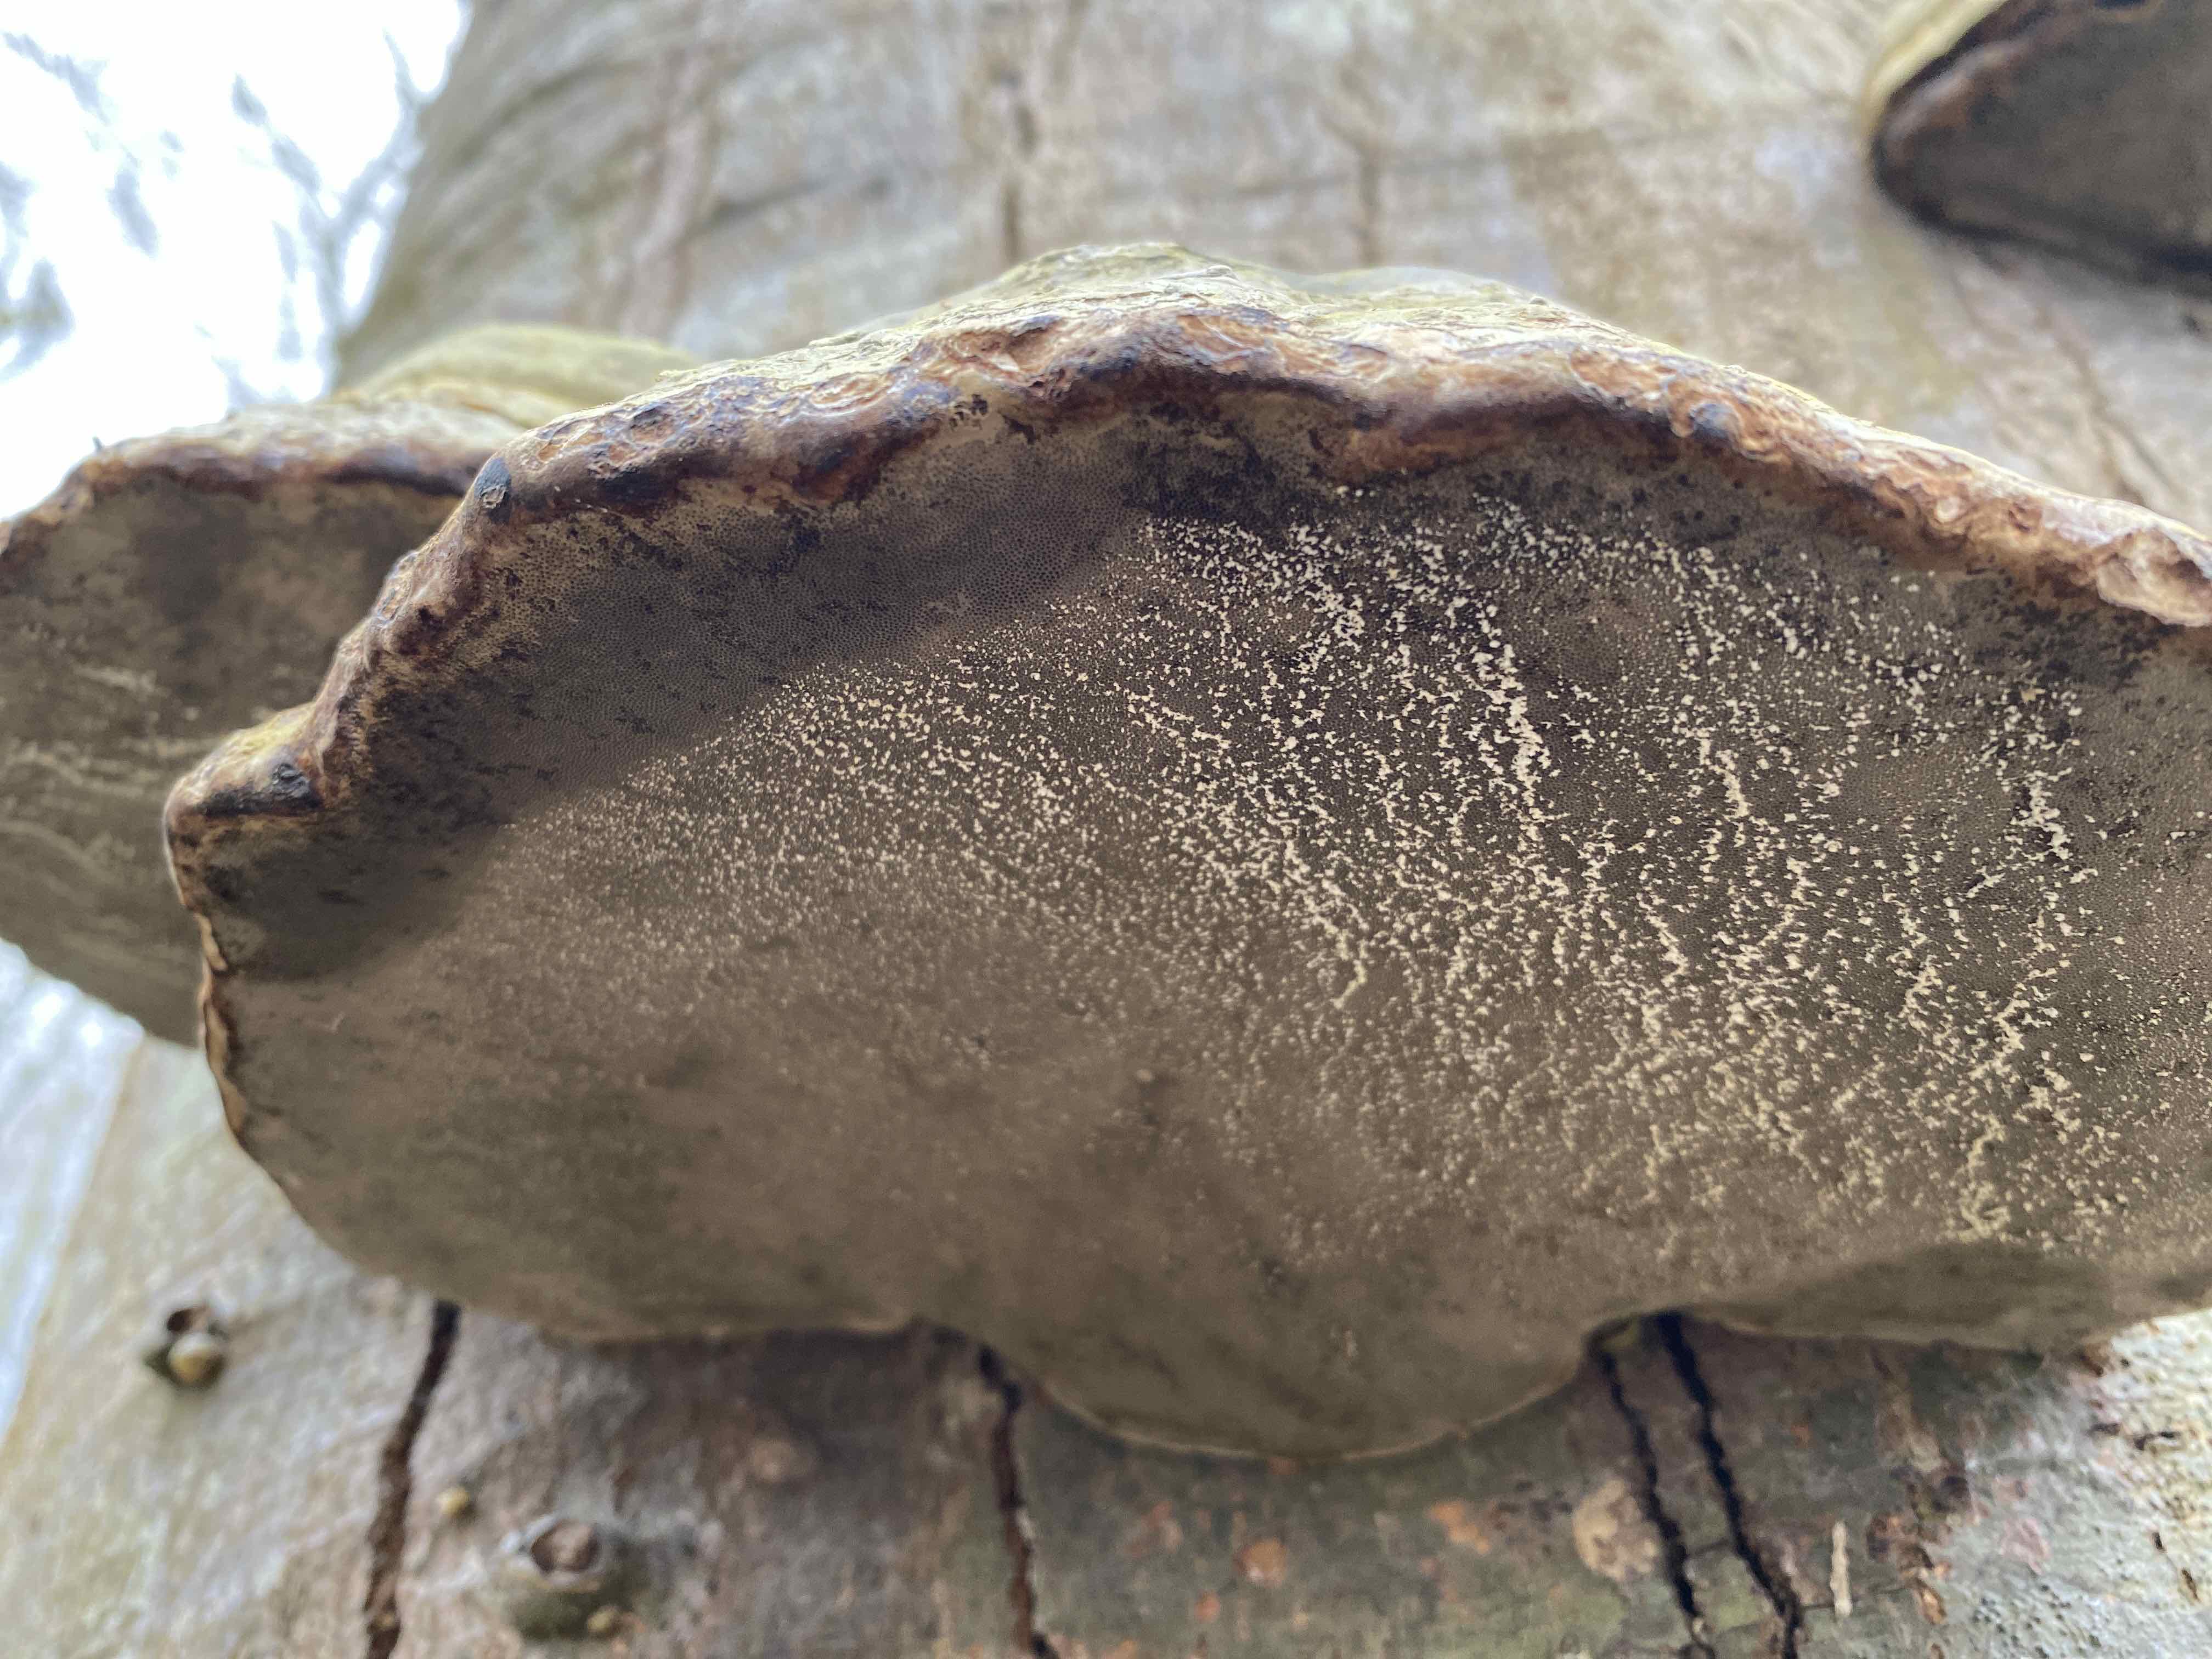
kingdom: Fungi
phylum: Basidiomycota
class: Agaricomycetes
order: Polyporales
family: Polyporaceae
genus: Fomes
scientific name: Fomes fomentarius
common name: tøndersvamp
